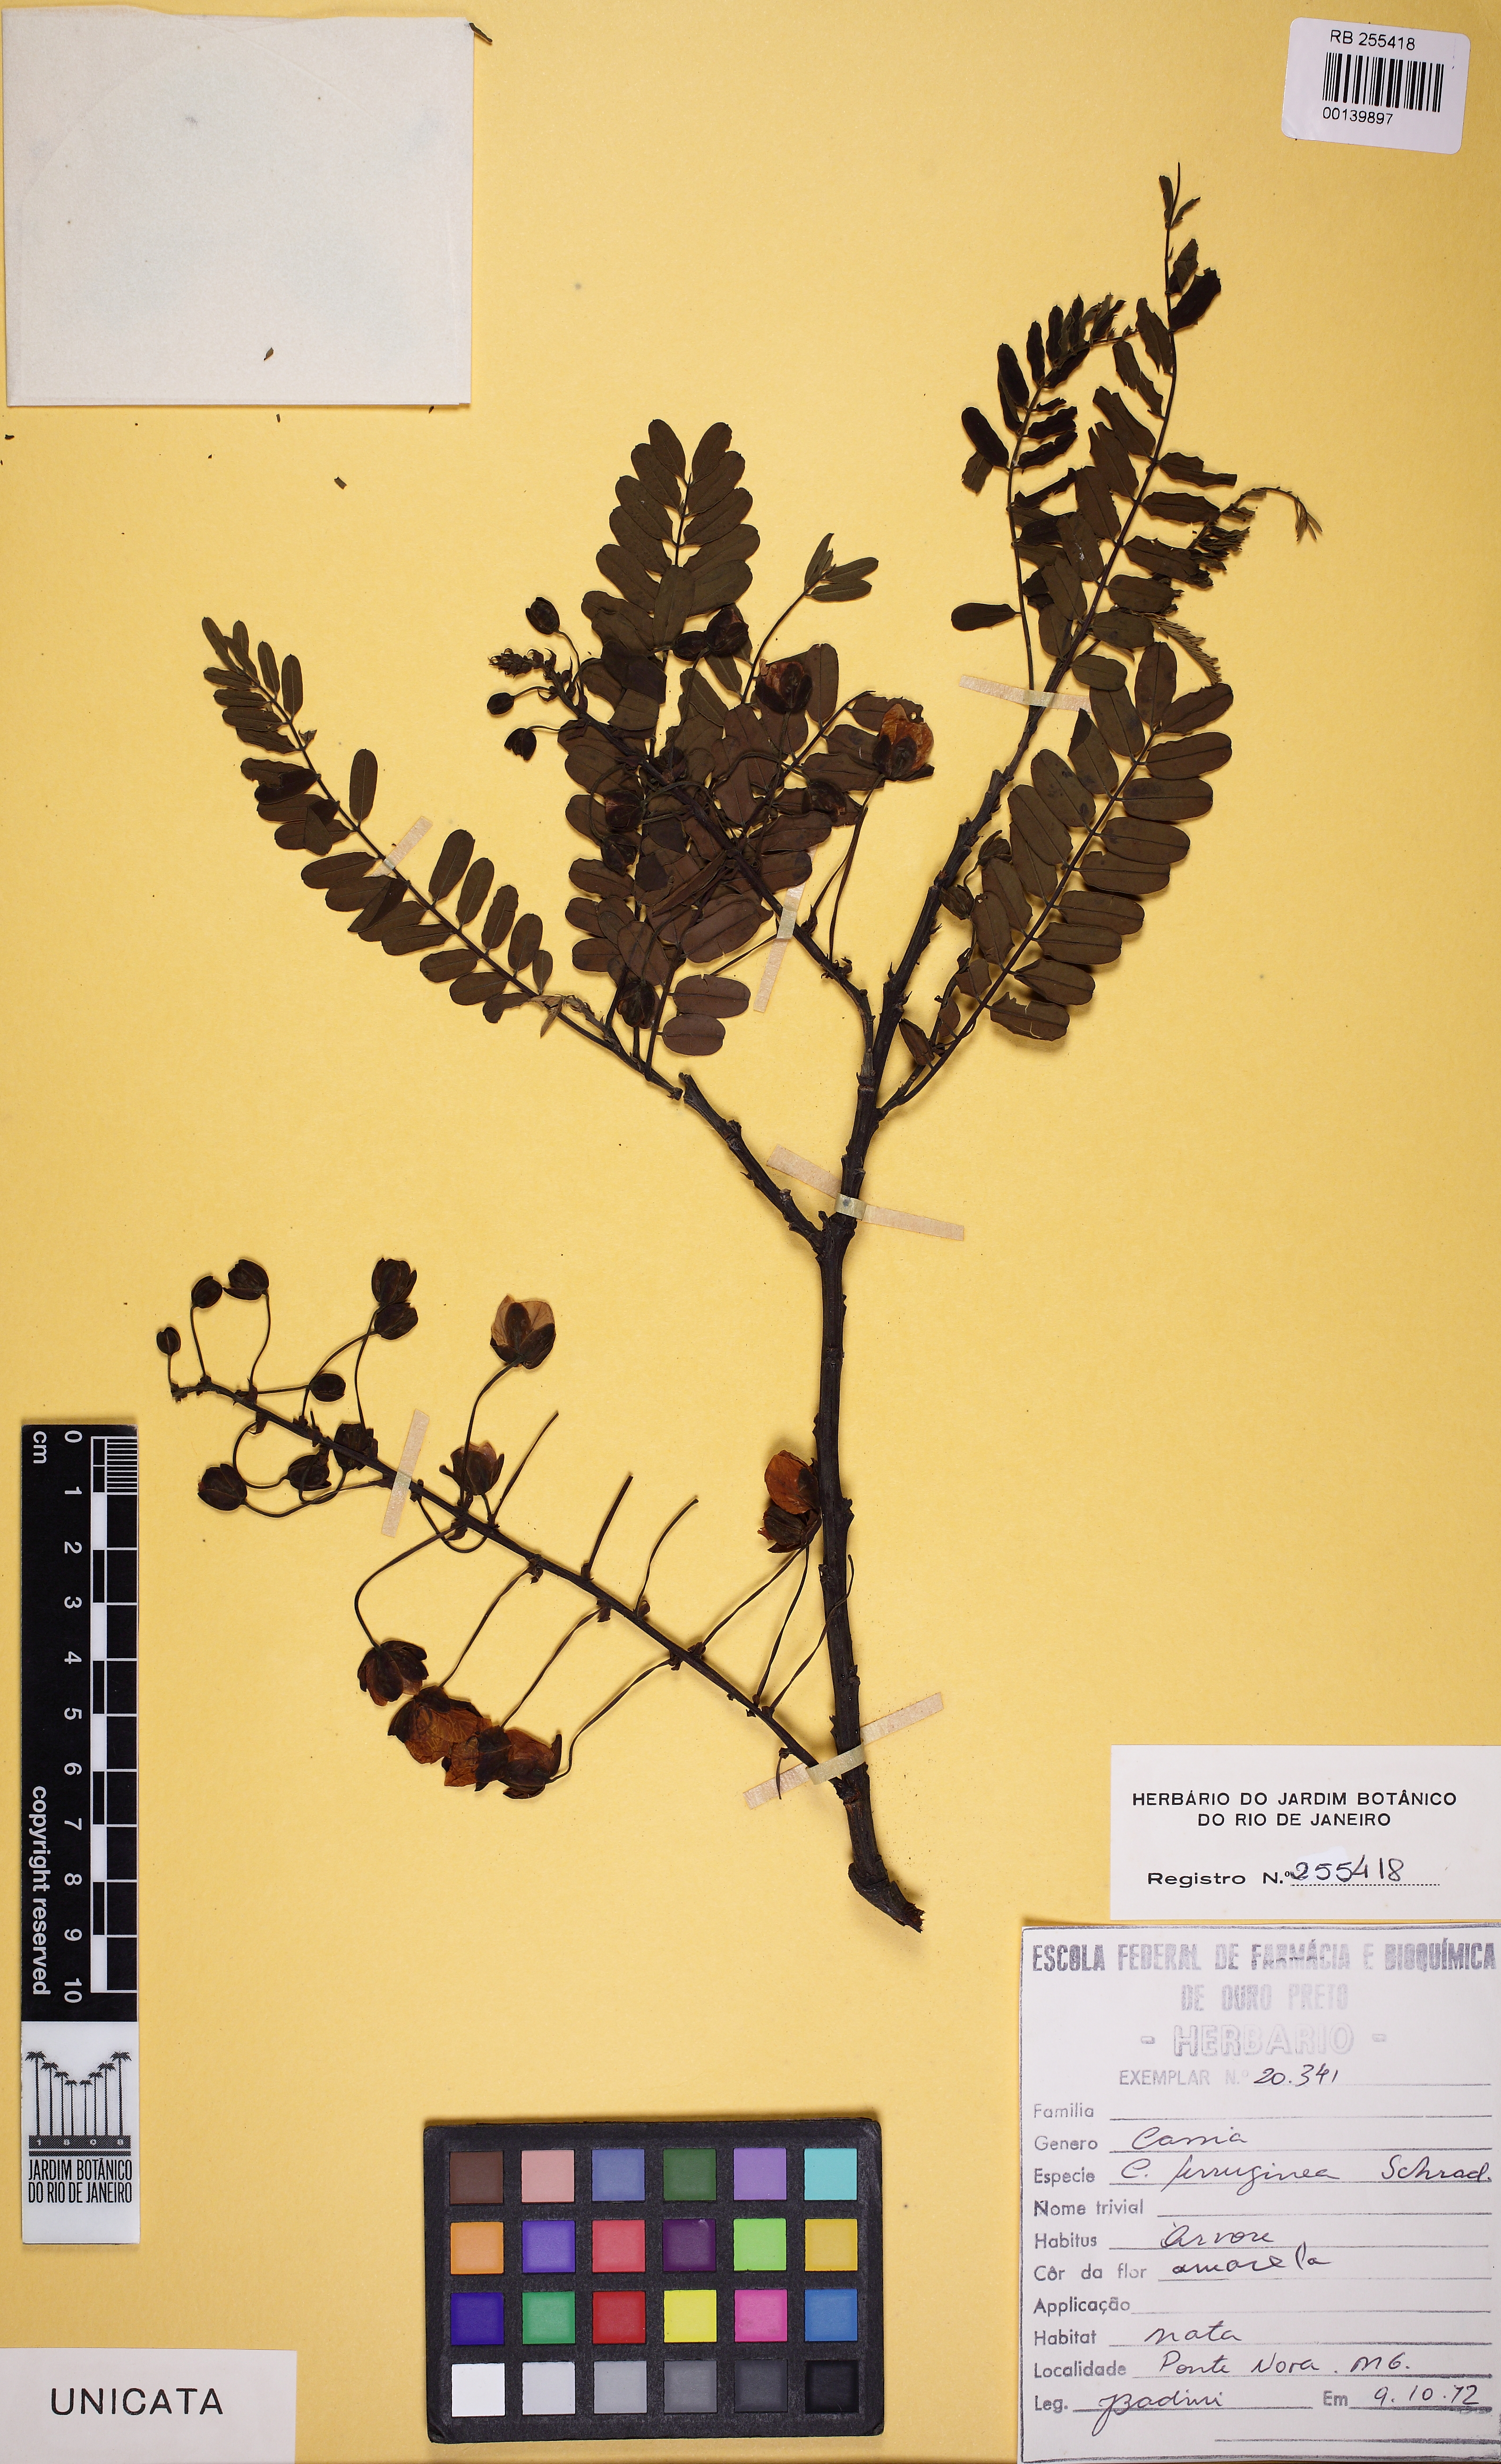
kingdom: Plantae
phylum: Tracheophyta
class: Magnoliopsida
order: Fabales
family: Fabaceae
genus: Cassia
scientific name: Cassia ferruginea
